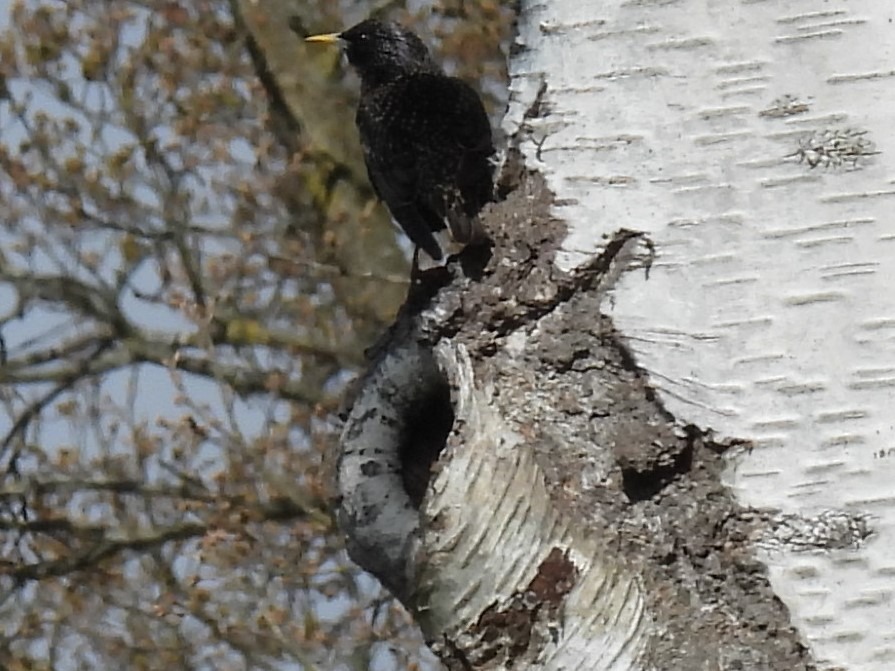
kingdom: Animalia
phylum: Chordata
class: Aves
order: Passeriformes
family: Sturnidae
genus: Sturnus
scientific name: Sturnus vulgaris
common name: Stær
